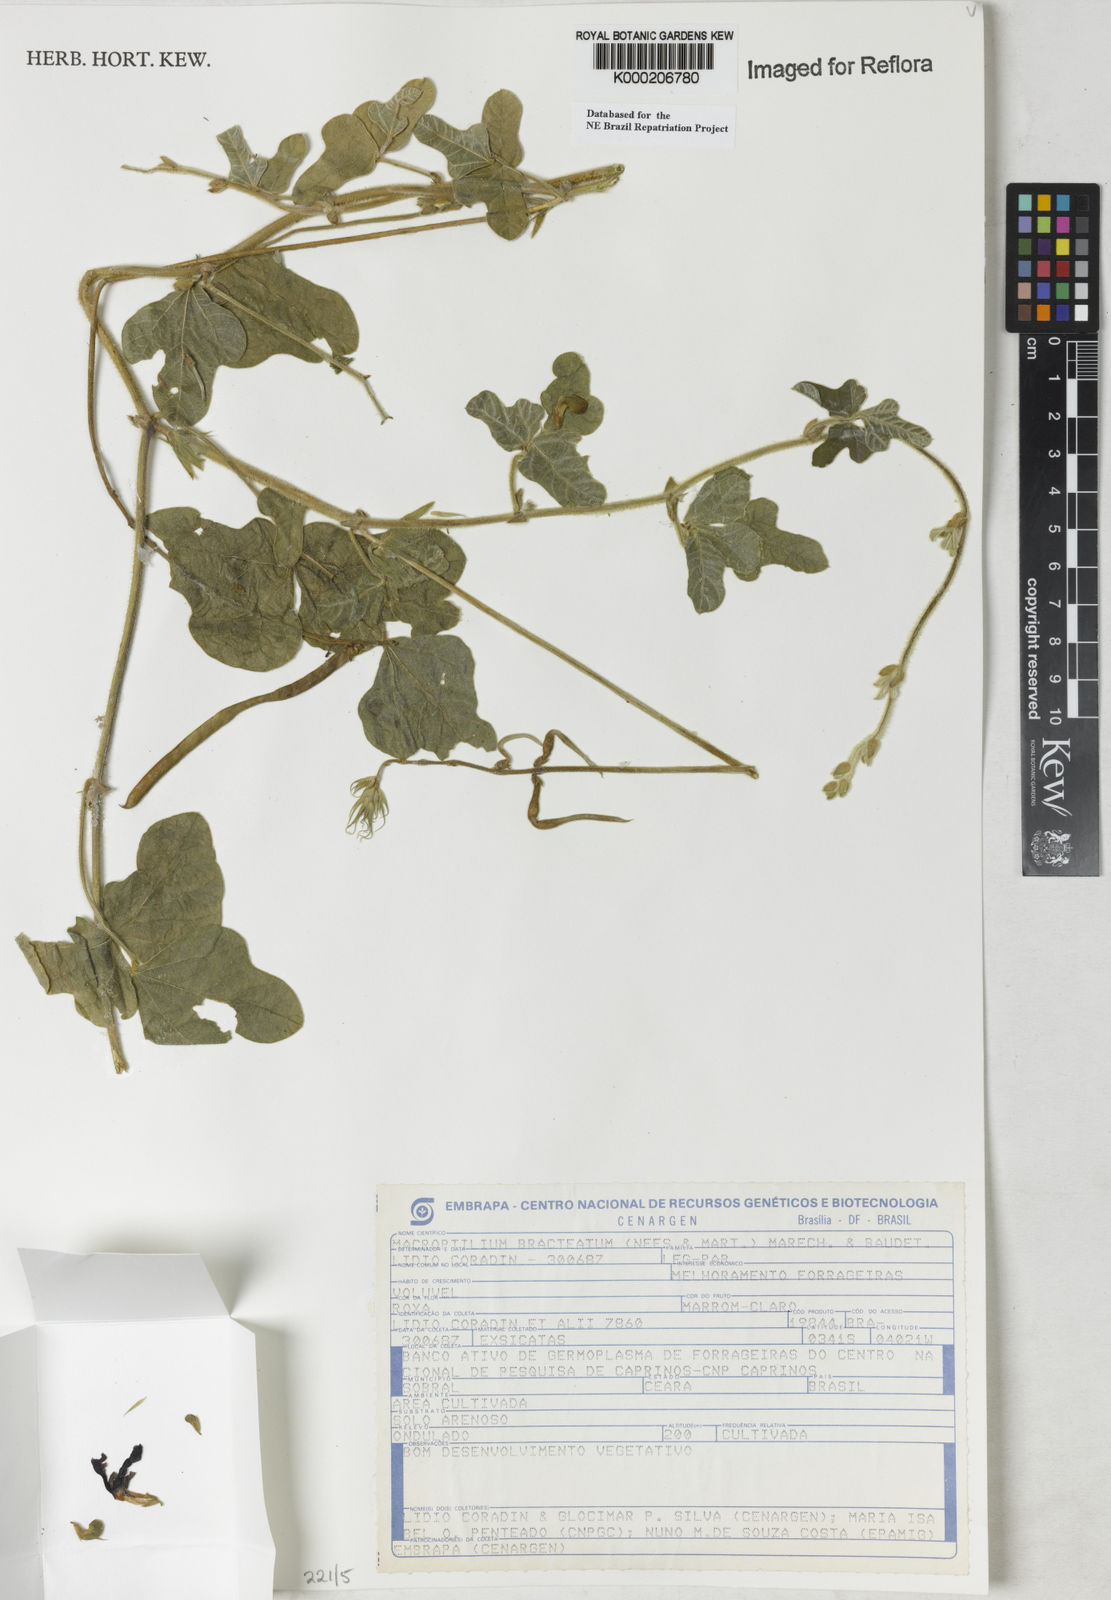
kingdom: Plantae
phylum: Tracheophyta
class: Magnoliopsida
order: Fabales
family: Fabaceae
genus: Macroptilium
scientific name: Macroptilium
